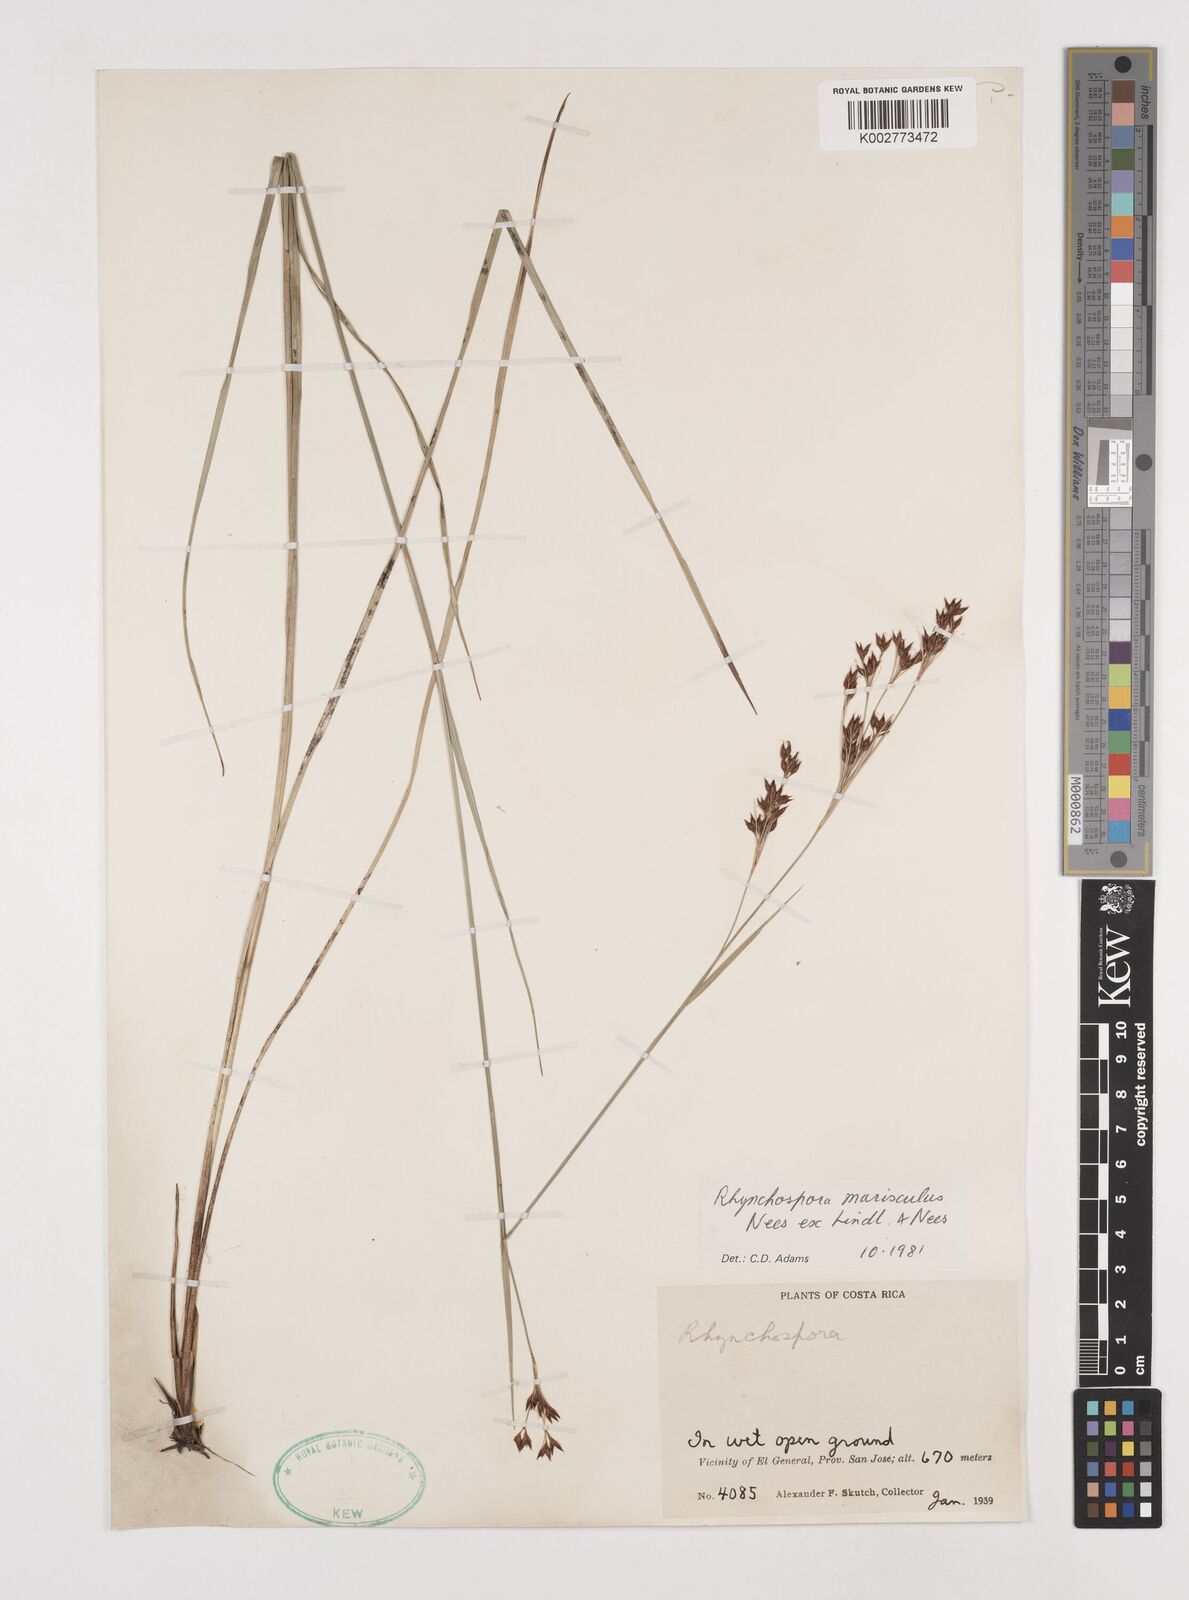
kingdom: Plantae
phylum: Tracheophyta
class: Liliopsida
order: Poales
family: Cyperaceae
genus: Rhynchospora
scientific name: Rhynchospora marisculus
